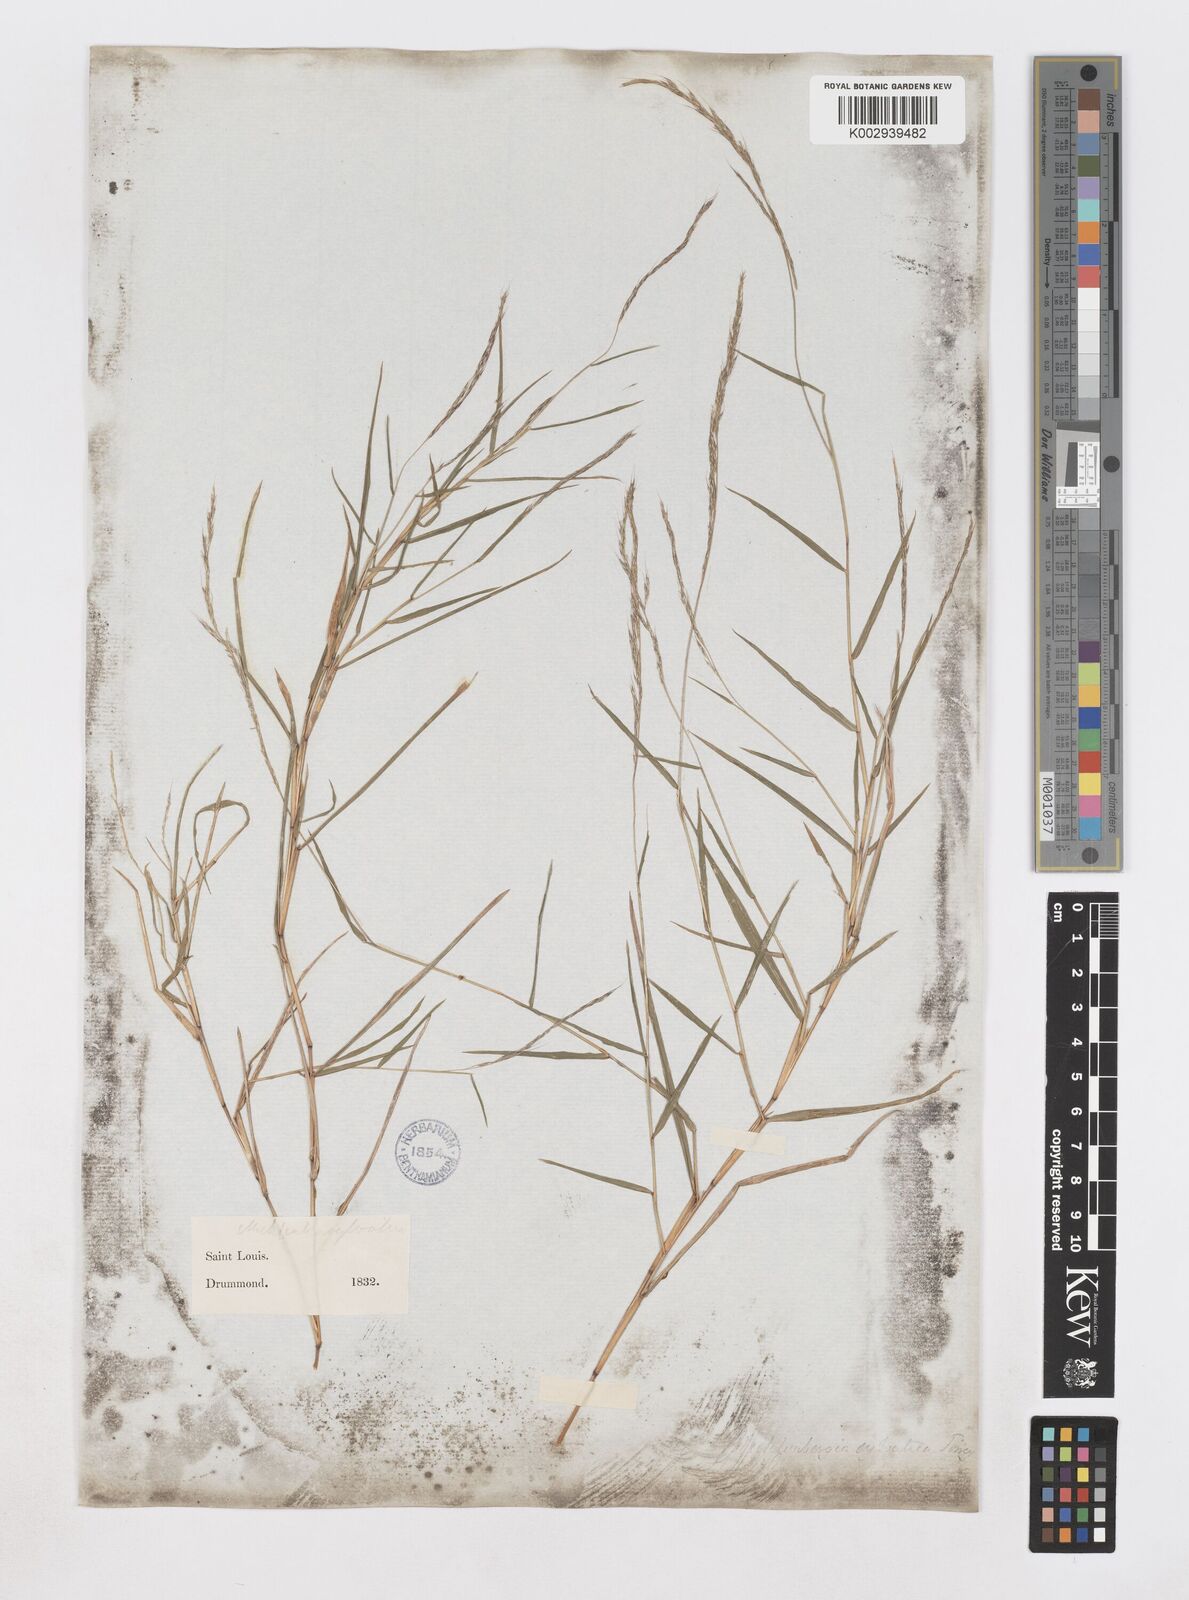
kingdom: Plantae
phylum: Tracheophyta
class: Liliopsida
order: Poales
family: Poaceae
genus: Muhlenbergia
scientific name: Muhlenbergia sylvatica
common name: Woodland muhly
